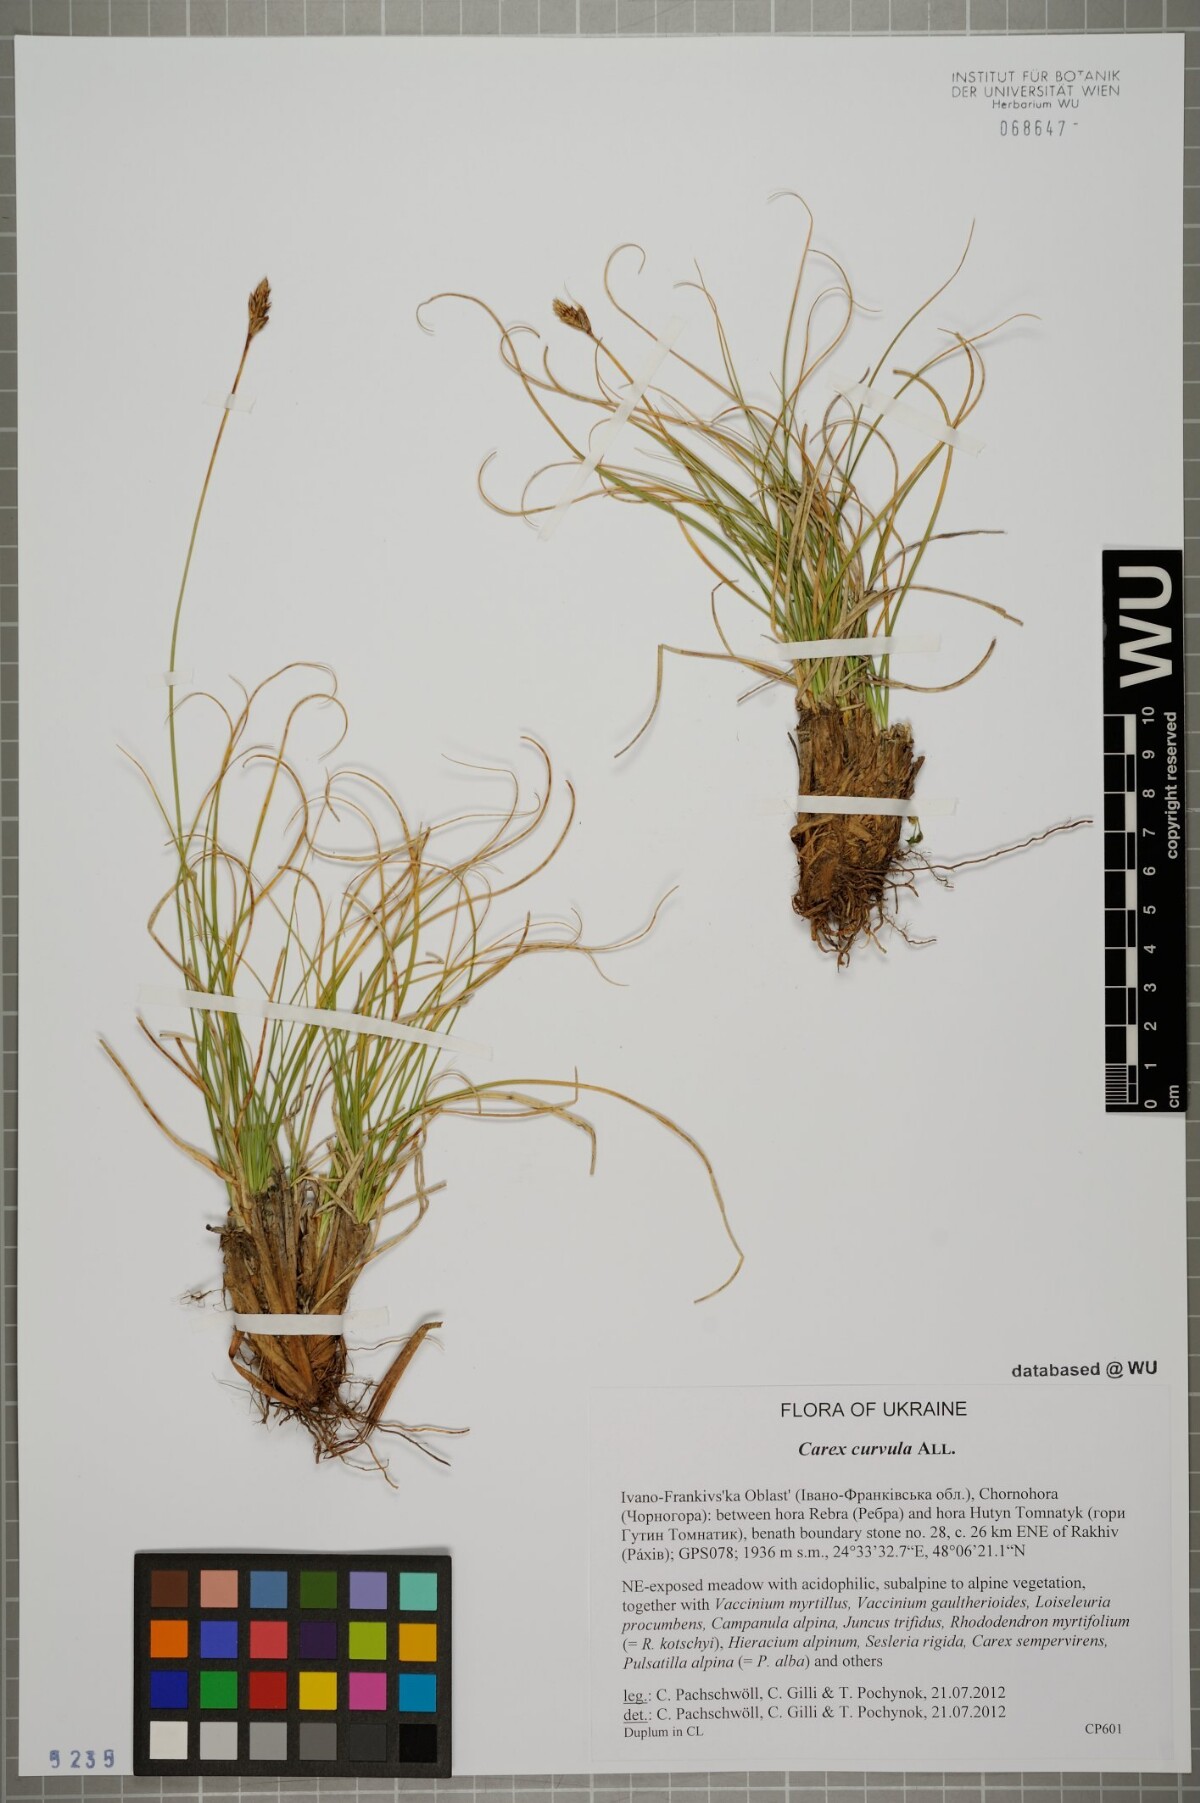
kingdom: Plantae
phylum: Tracheophyta
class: Liliopsida
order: Poales
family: Cyperaceae
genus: Carex
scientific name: Carex curvula
